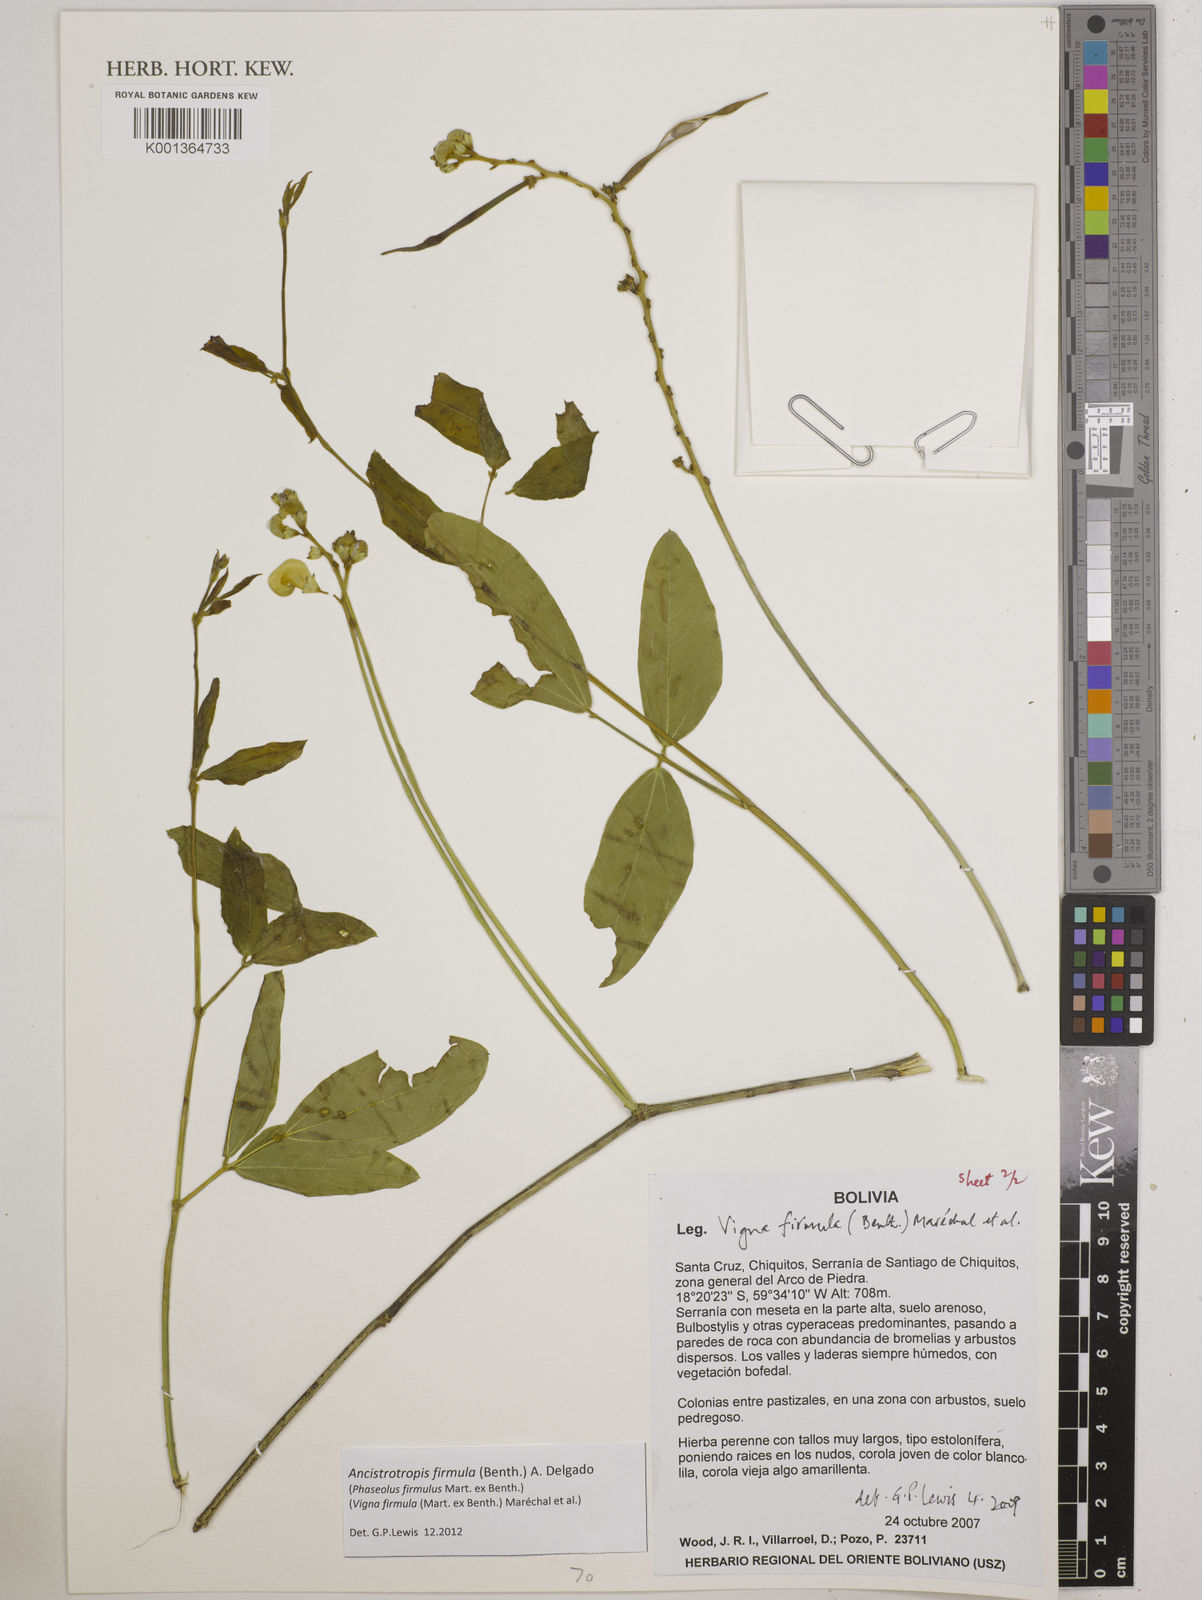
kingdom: Plantae
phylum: Tracheophyta
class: Magnoliopsida
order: Fabales
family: Fabaceae
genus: Ancistrotropis
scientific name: Ancistrotropis firmula
